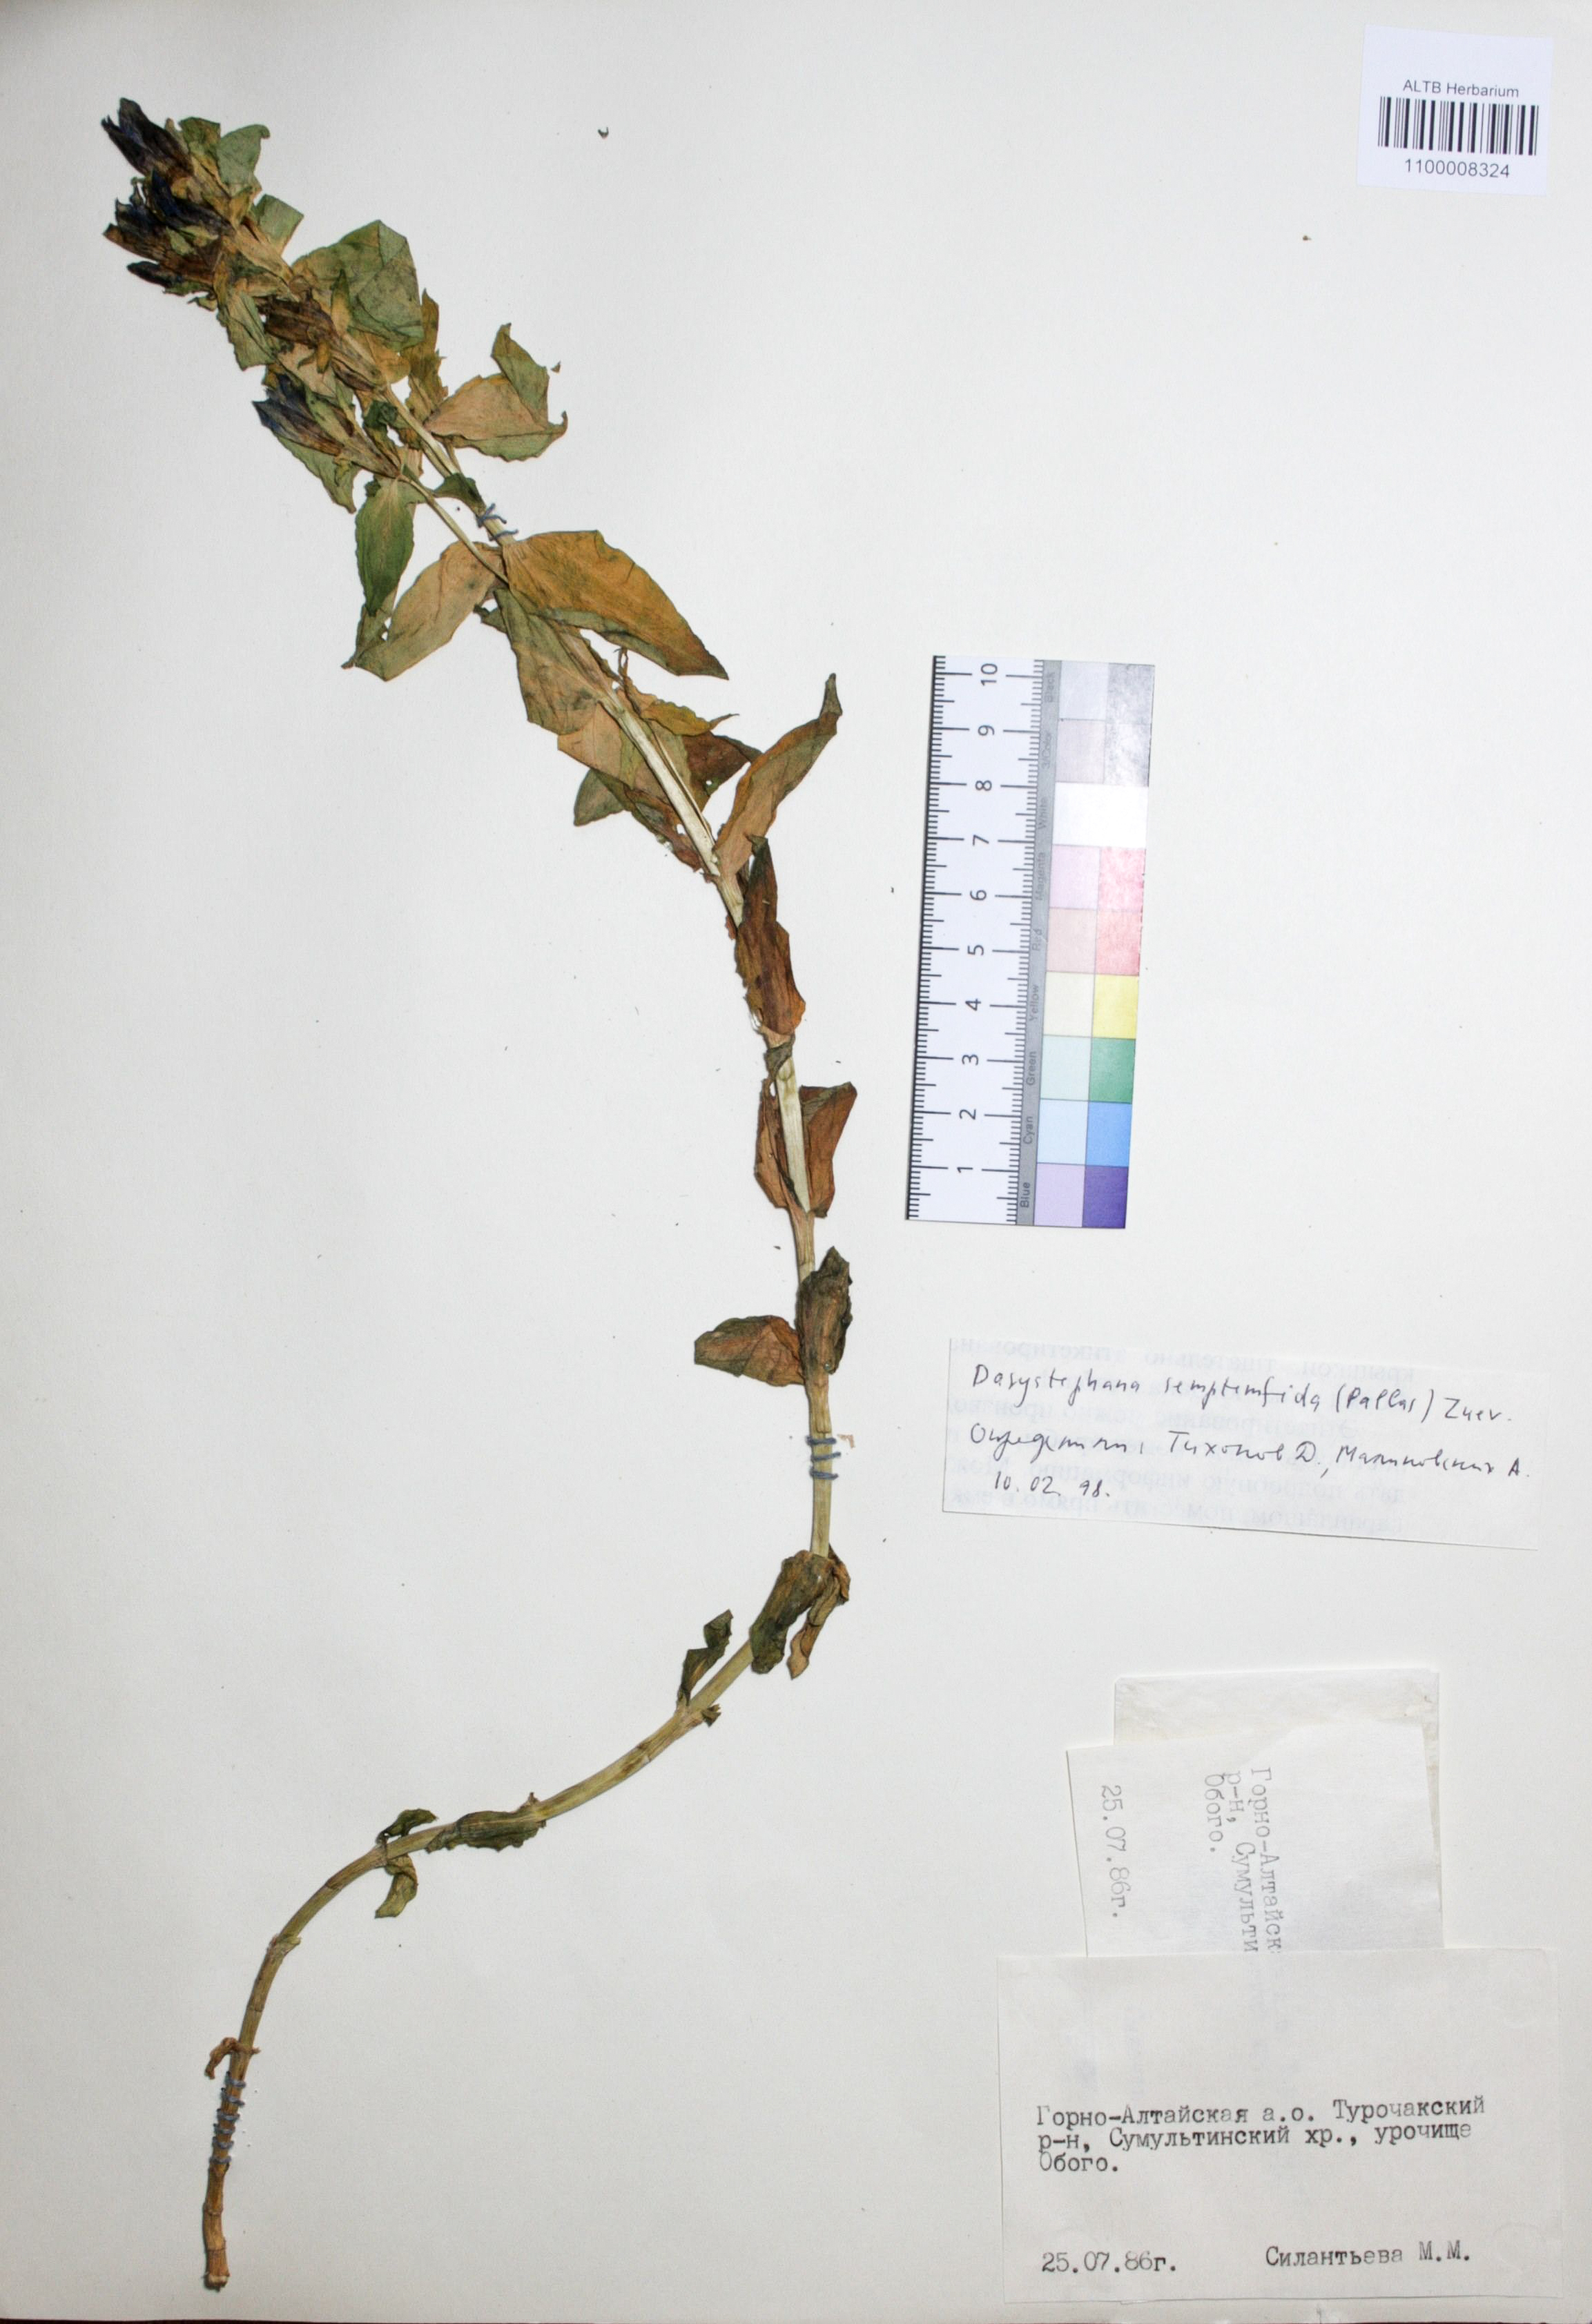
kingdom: Plantae
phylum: Tracheophyta
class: Magnoliopsida
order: Gentianales
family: Gentianaceae
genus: Gentiana
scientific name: Gentiana septemfida
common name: Crested gentian
